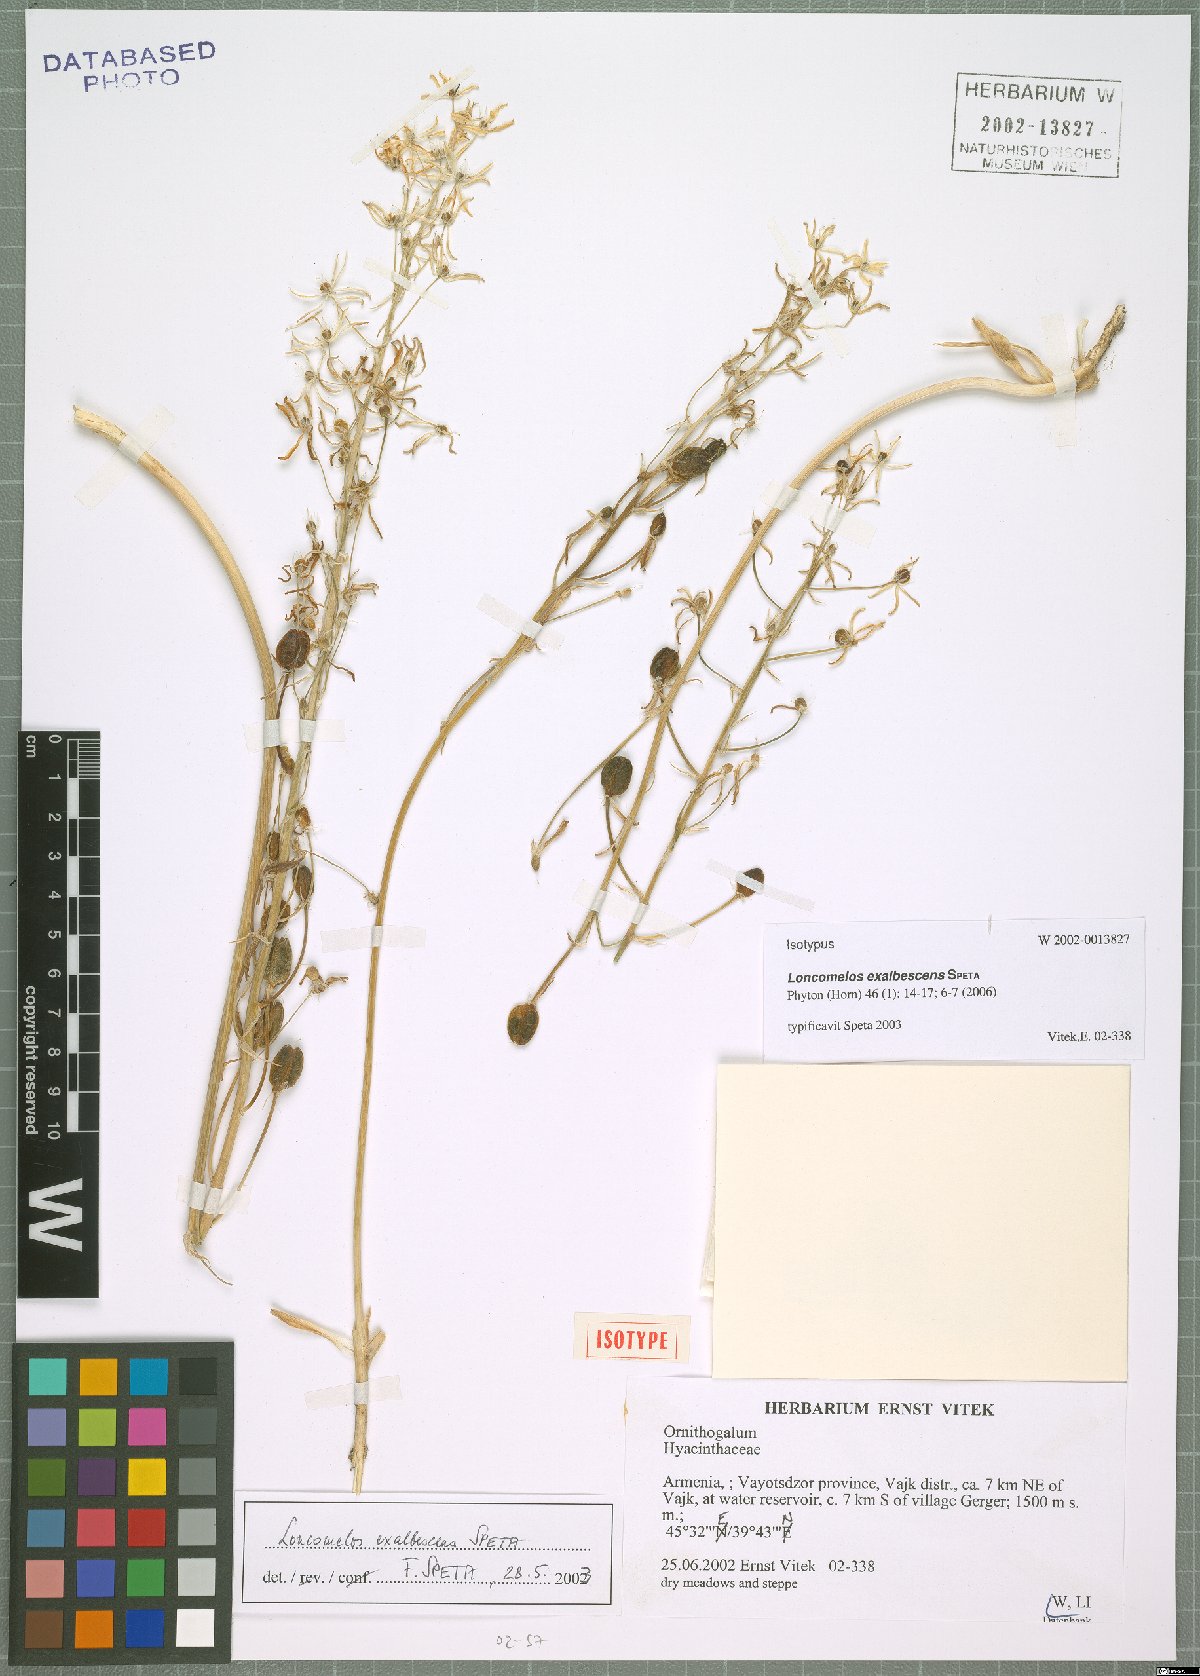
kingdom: Plantae
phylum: Tracheophyta
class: Liliopsida
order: Asparagales
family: Asparagaceae
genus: Ornithogalum
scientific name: Ornithogalum Loncomelos exalbescens
